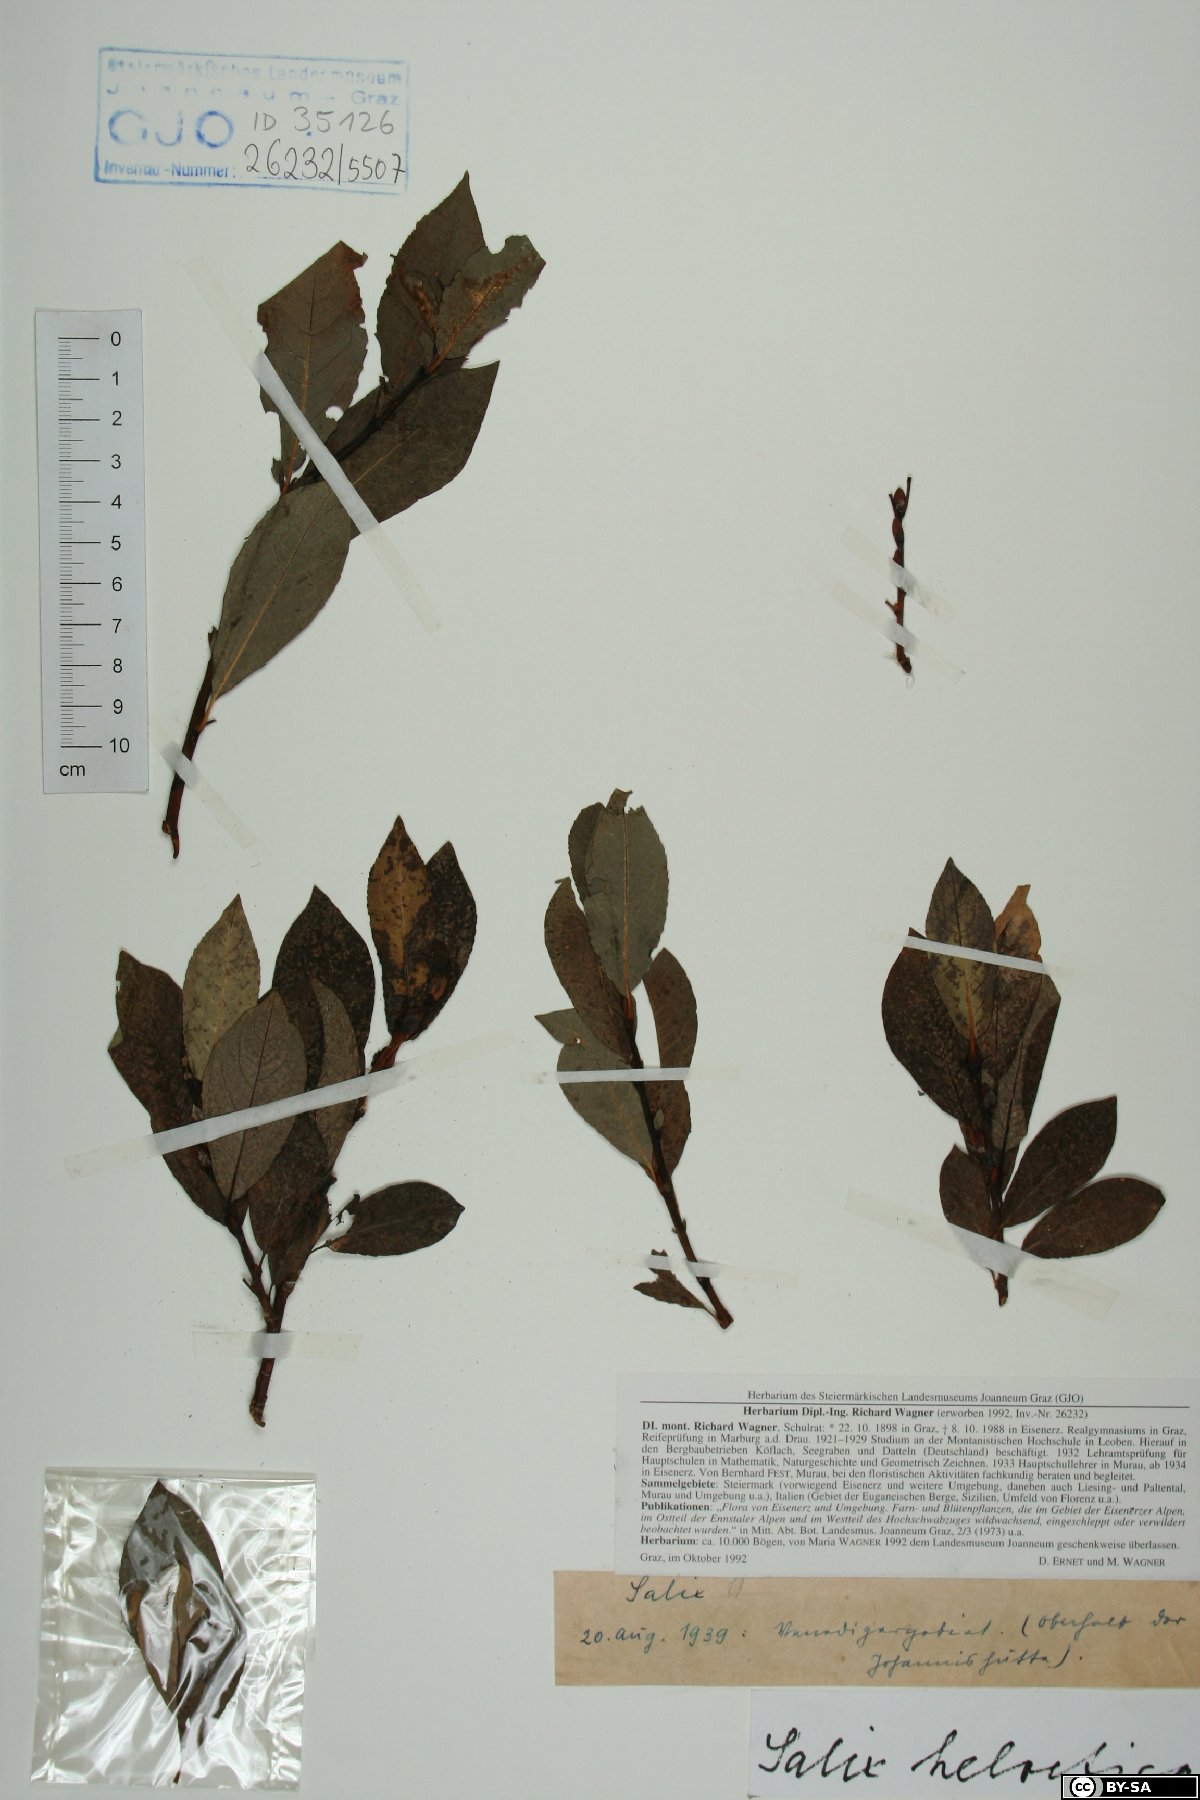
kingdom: Plantae
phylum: Tracheophyta
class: Magnoliopsida
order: Malpighiales
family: Salicaceae
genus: Salix
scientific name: Salix helvetica
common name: Swiss willow
